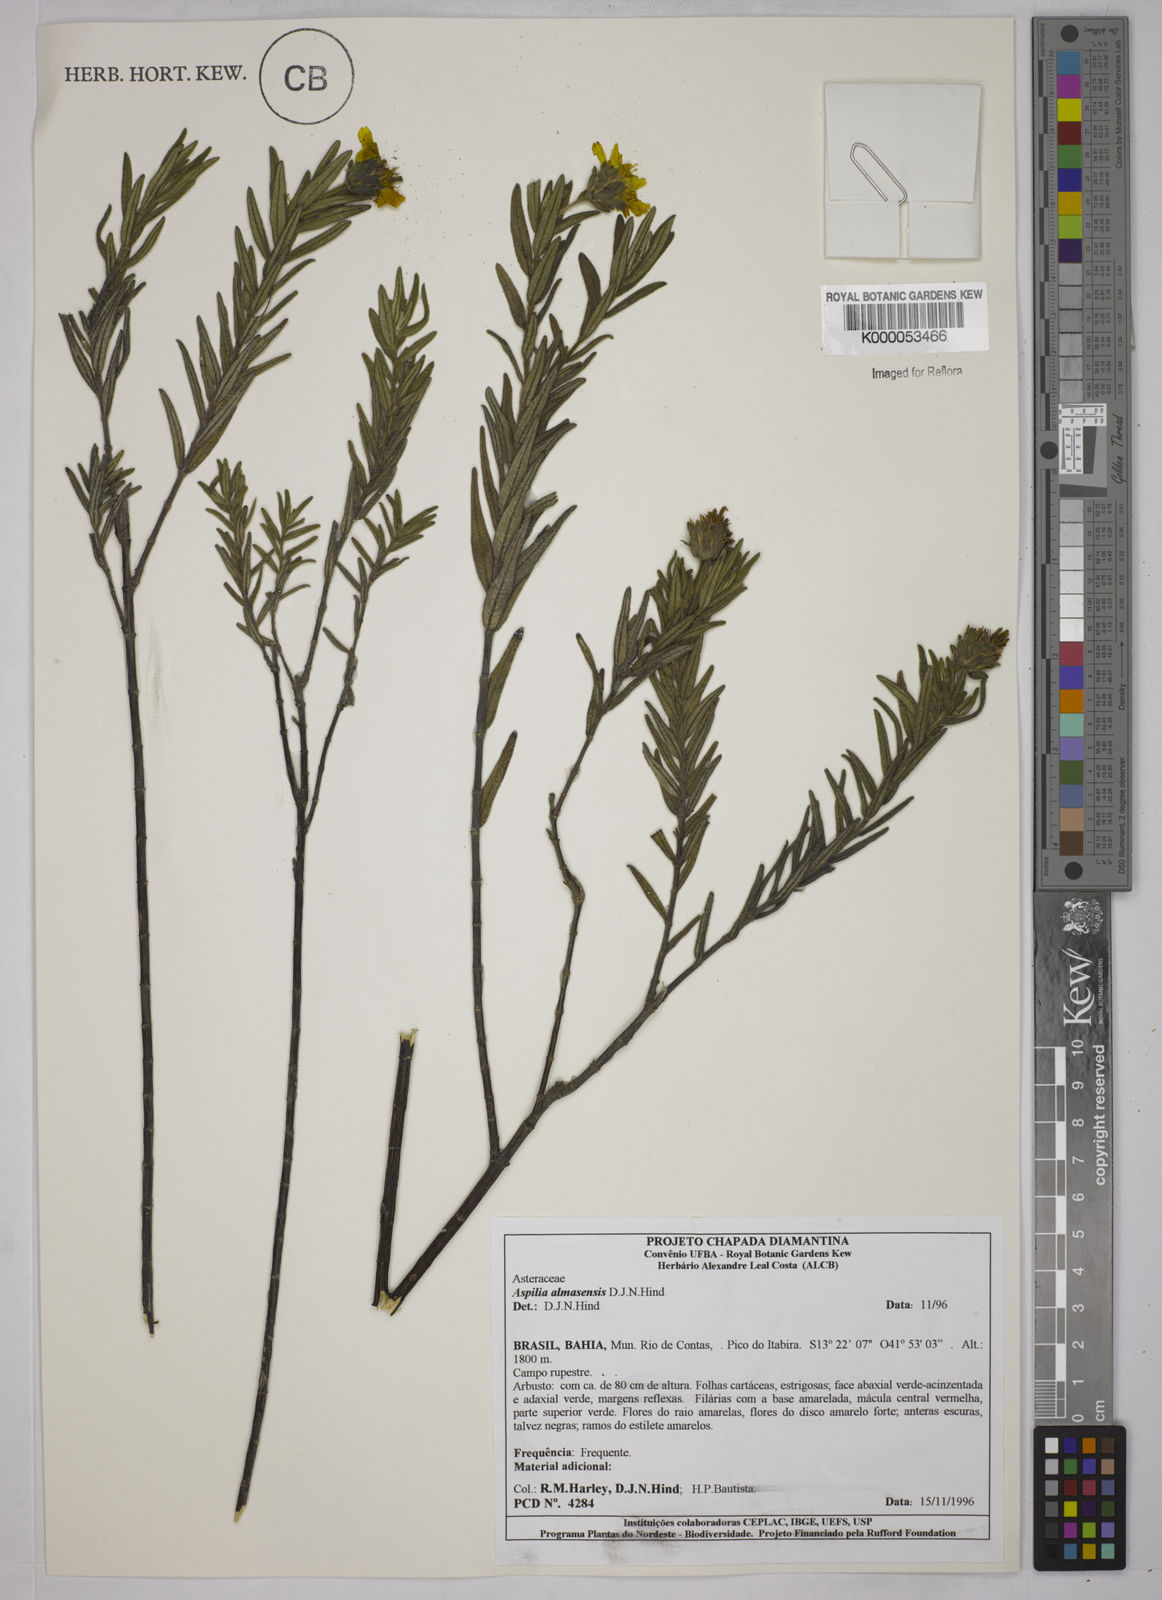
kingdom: Plantae
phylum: Tracheophyta
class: Magnoliopsida
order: Asterales
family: Asteraceae
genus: Aspilia
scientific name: Aspilia almasensis
